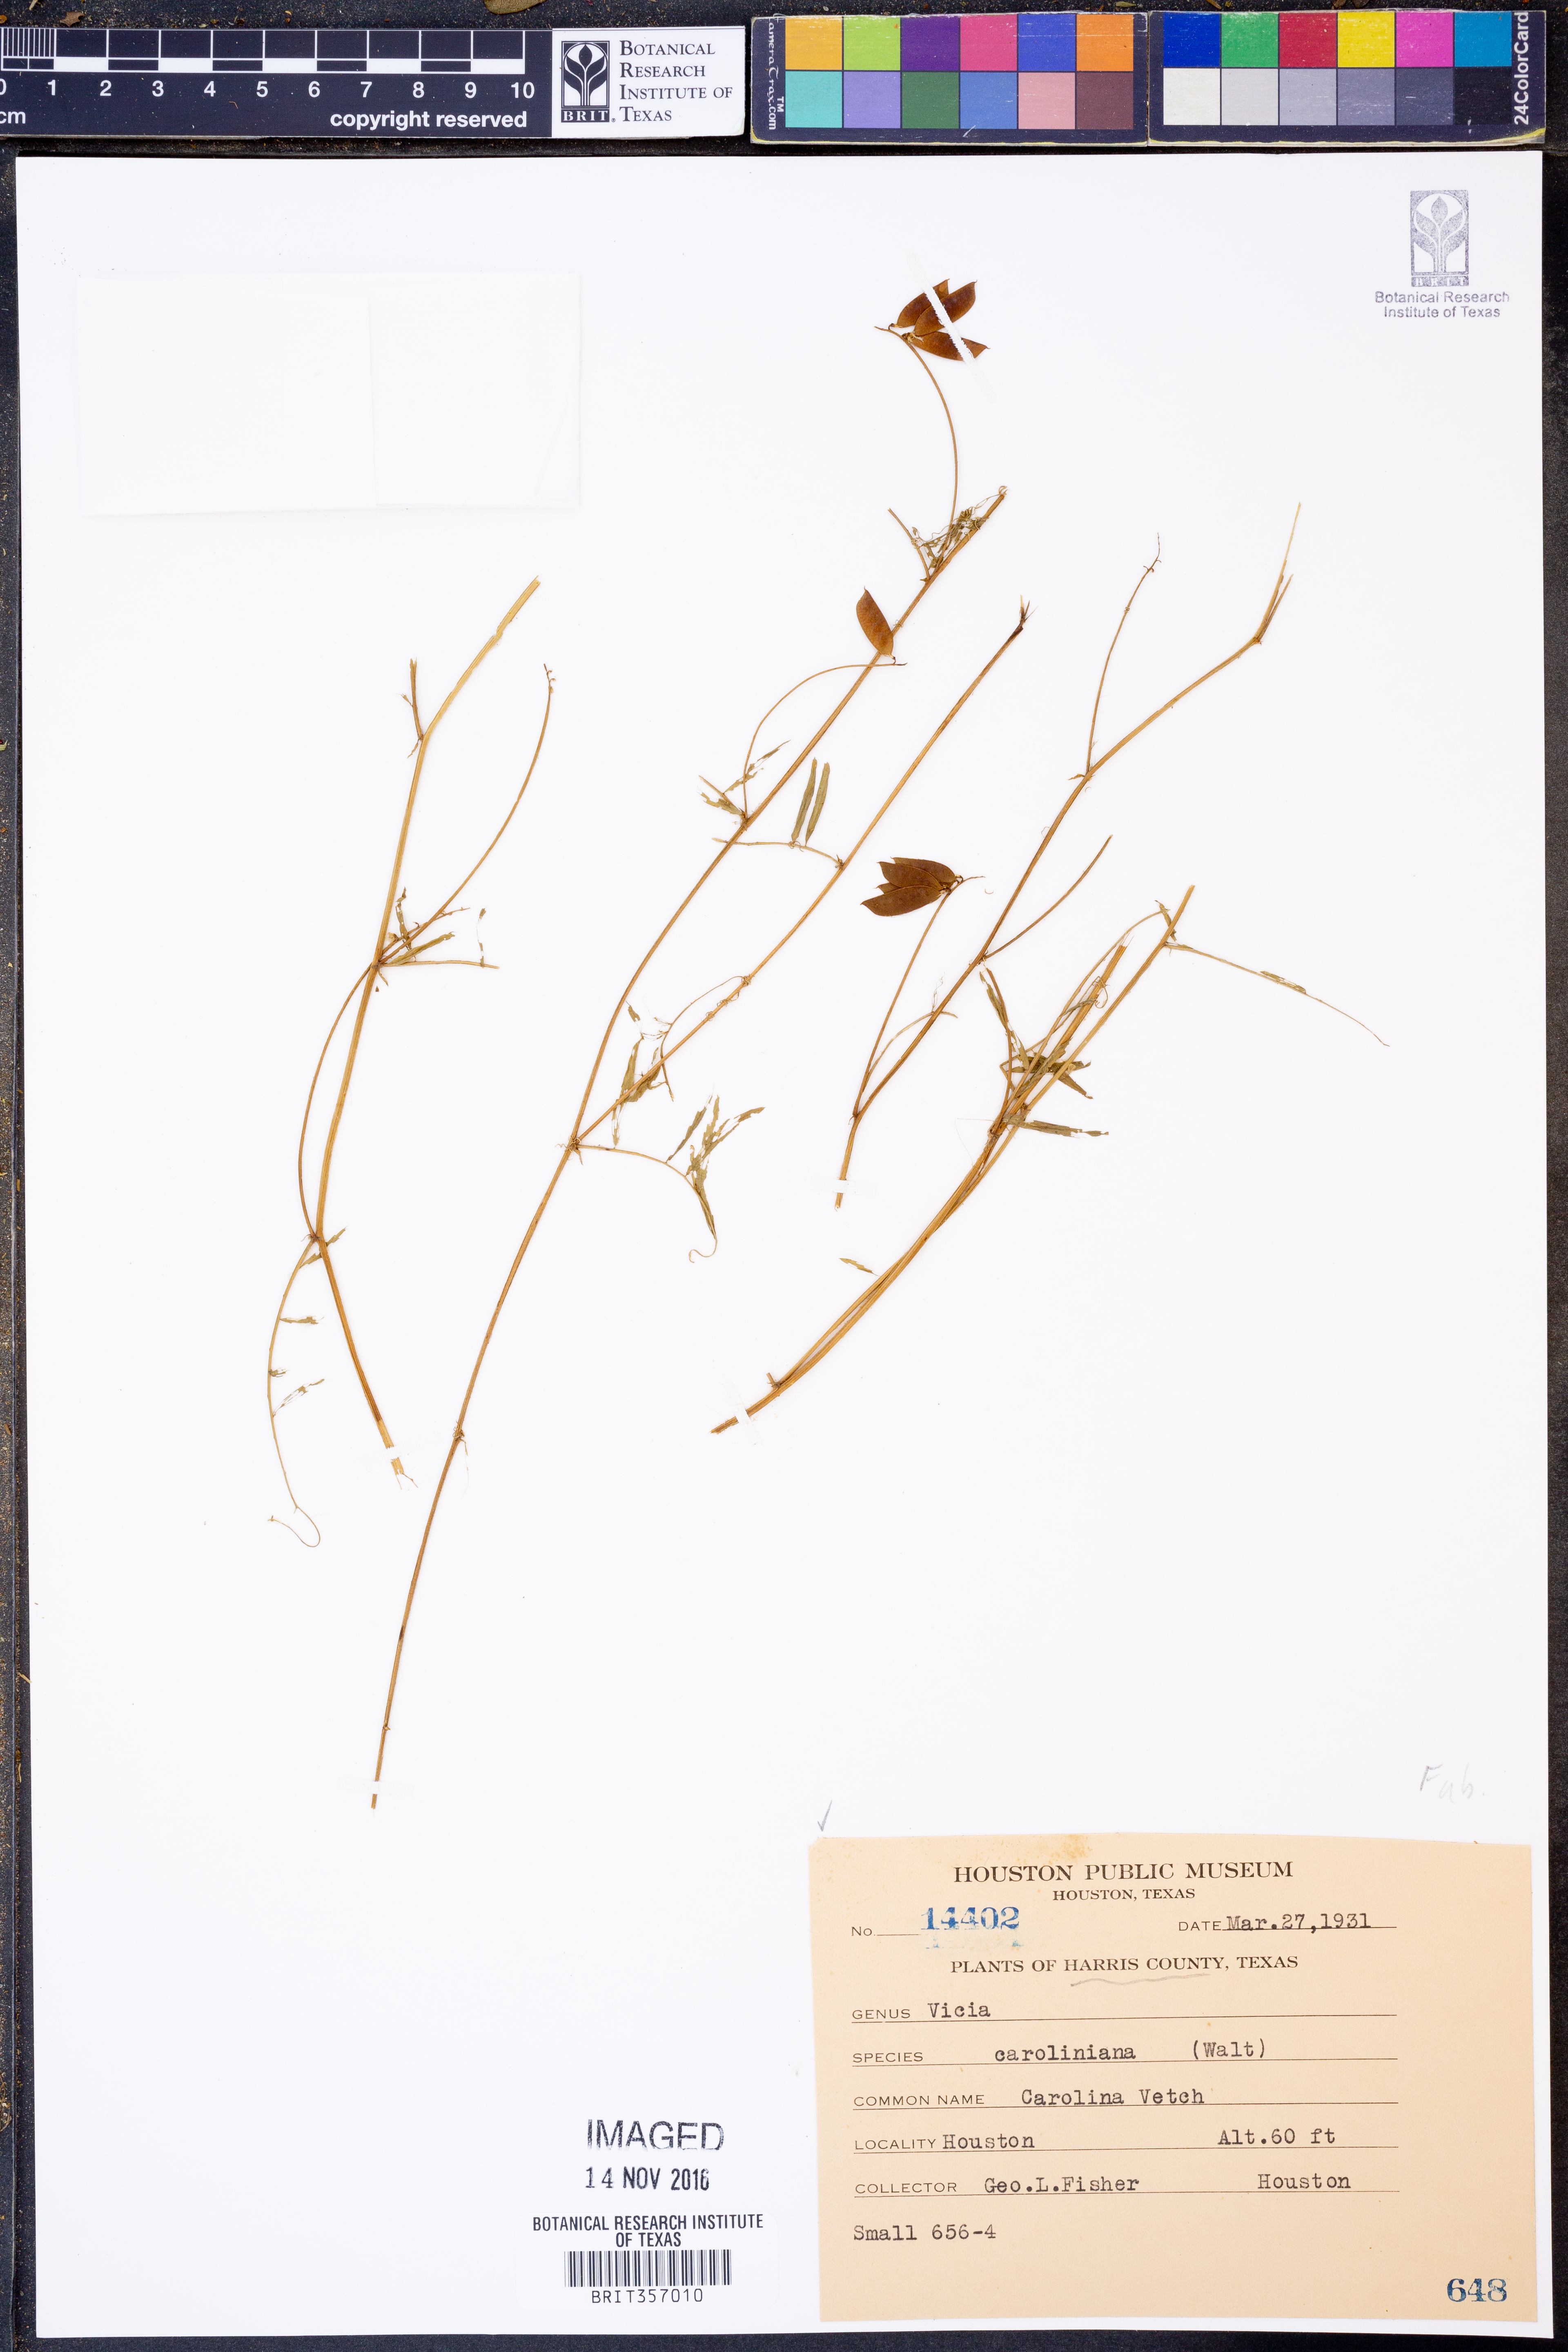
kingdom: Plantae
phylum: Tracheophyta
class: Magnoliopsida
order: Fabales
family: Fabaceae
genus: Vicia
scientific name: Vicia caroliniana
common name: Carolina vetch
